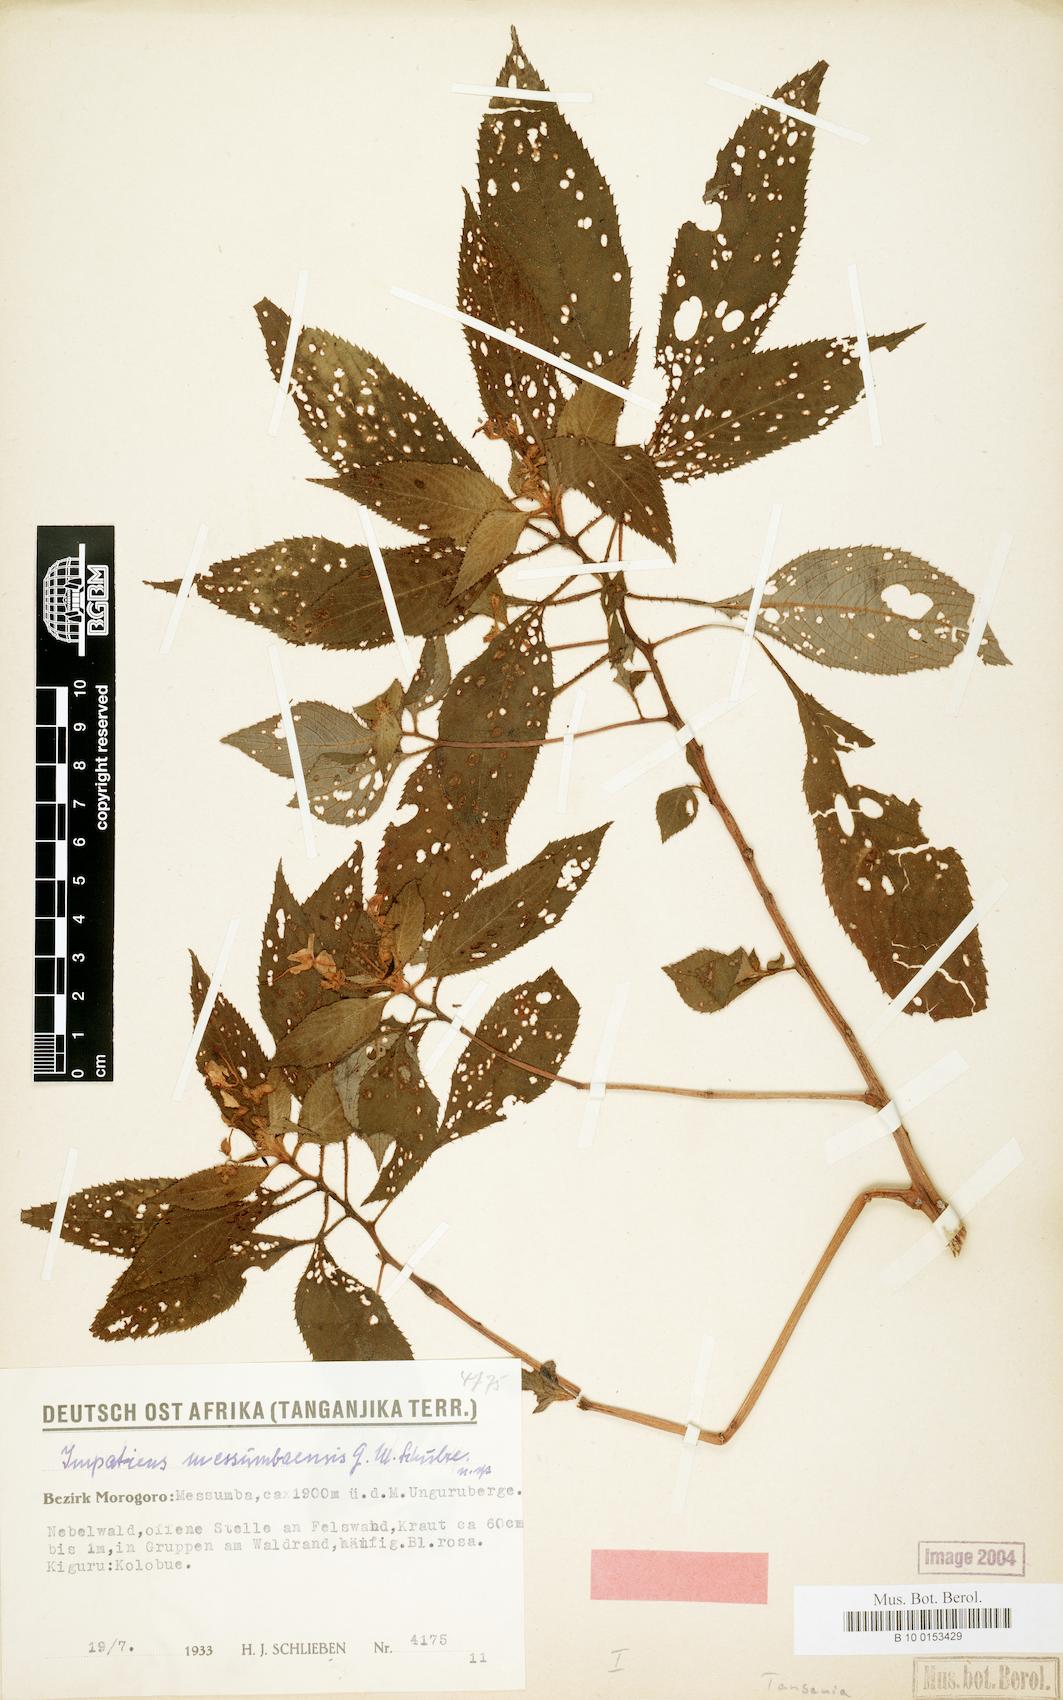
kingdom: Plantae
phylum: Tracheophyta
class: Magnoliopsida
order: Ericales
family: Balsaminaceae
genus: Impatiens
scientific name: Impatiens messumbaensis
